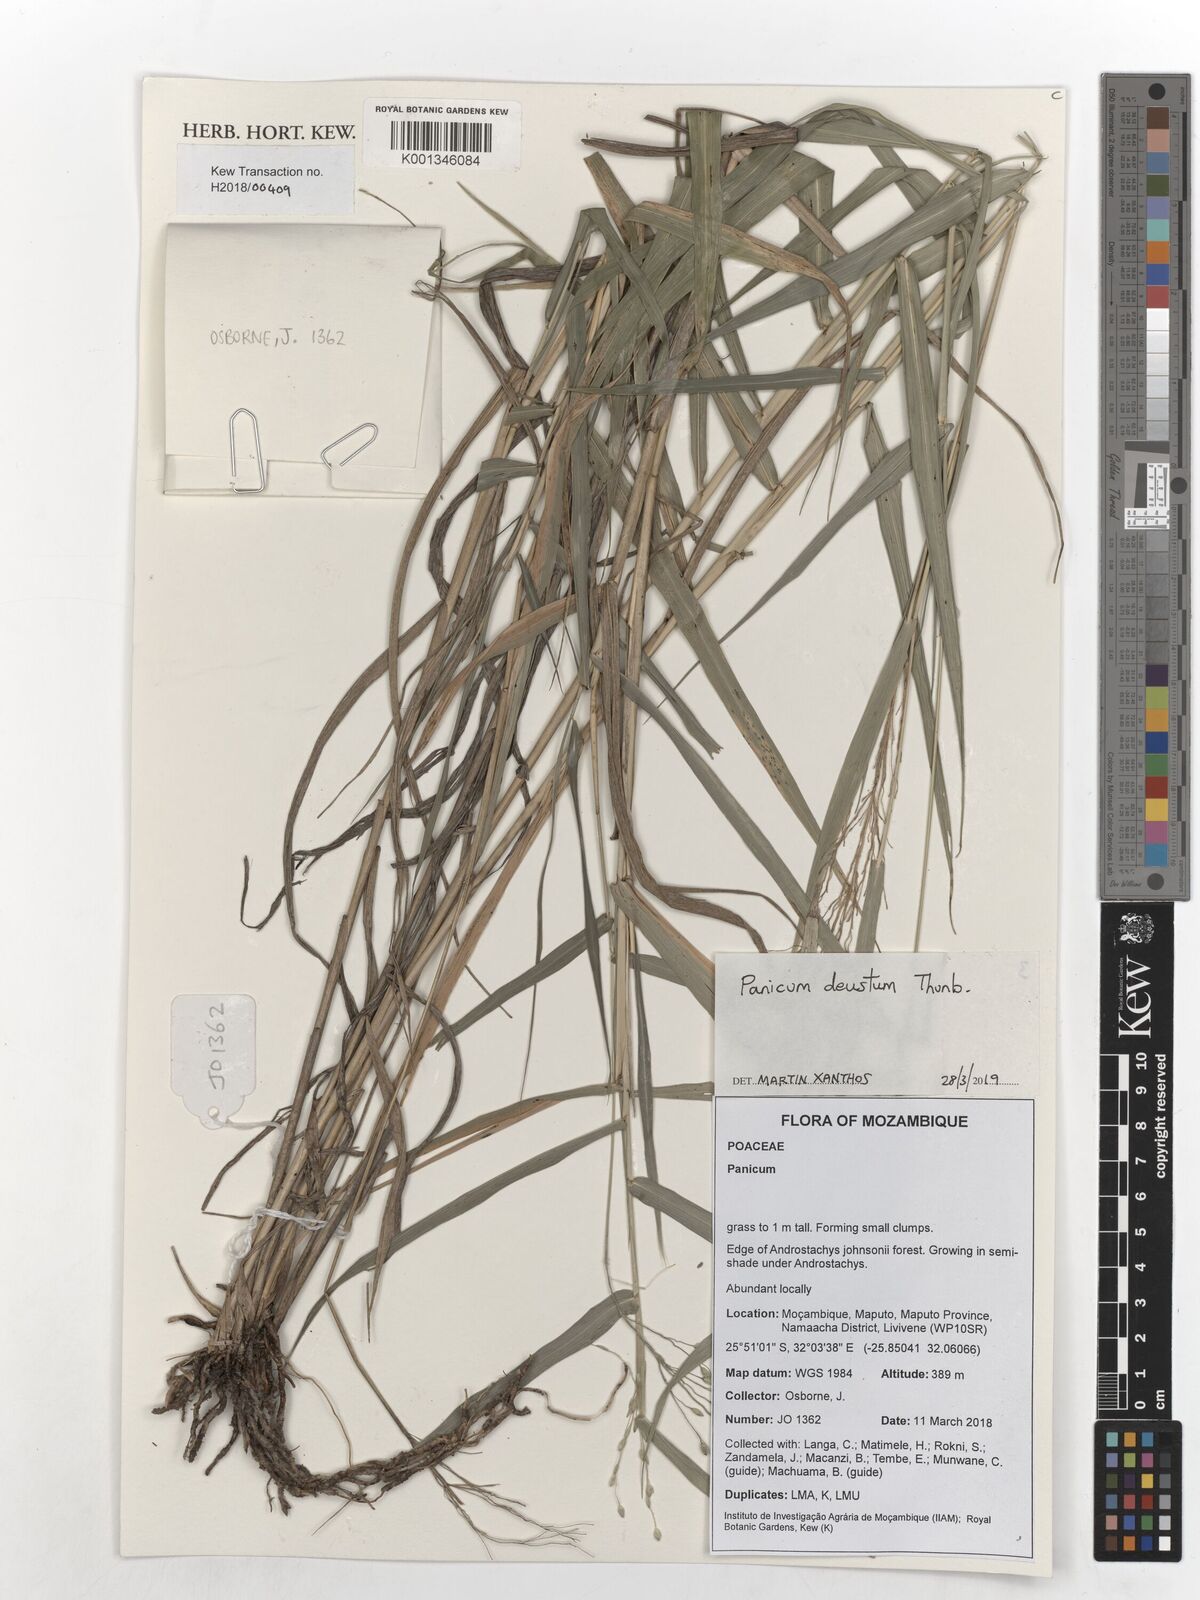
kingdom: Plantae
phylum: Tracheophyta
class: Liliopsida
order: Poales
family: Poaceae
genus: Panicum
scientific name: Panicum deustum
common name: Reed panicum
